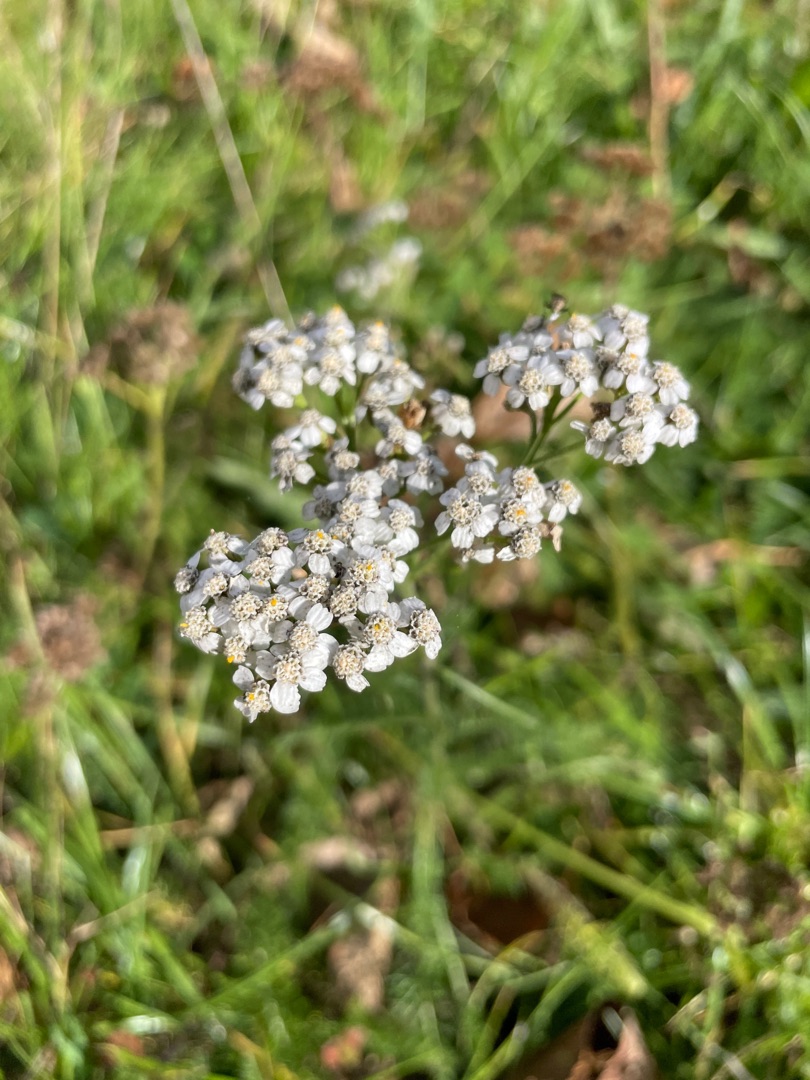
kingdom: Plantae
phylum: Tracheophyta
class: Magnoliopsida
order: Asterales
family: Asteraceae
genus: Achillea
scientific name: Achillea millefolium
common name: Almindelig røllike
